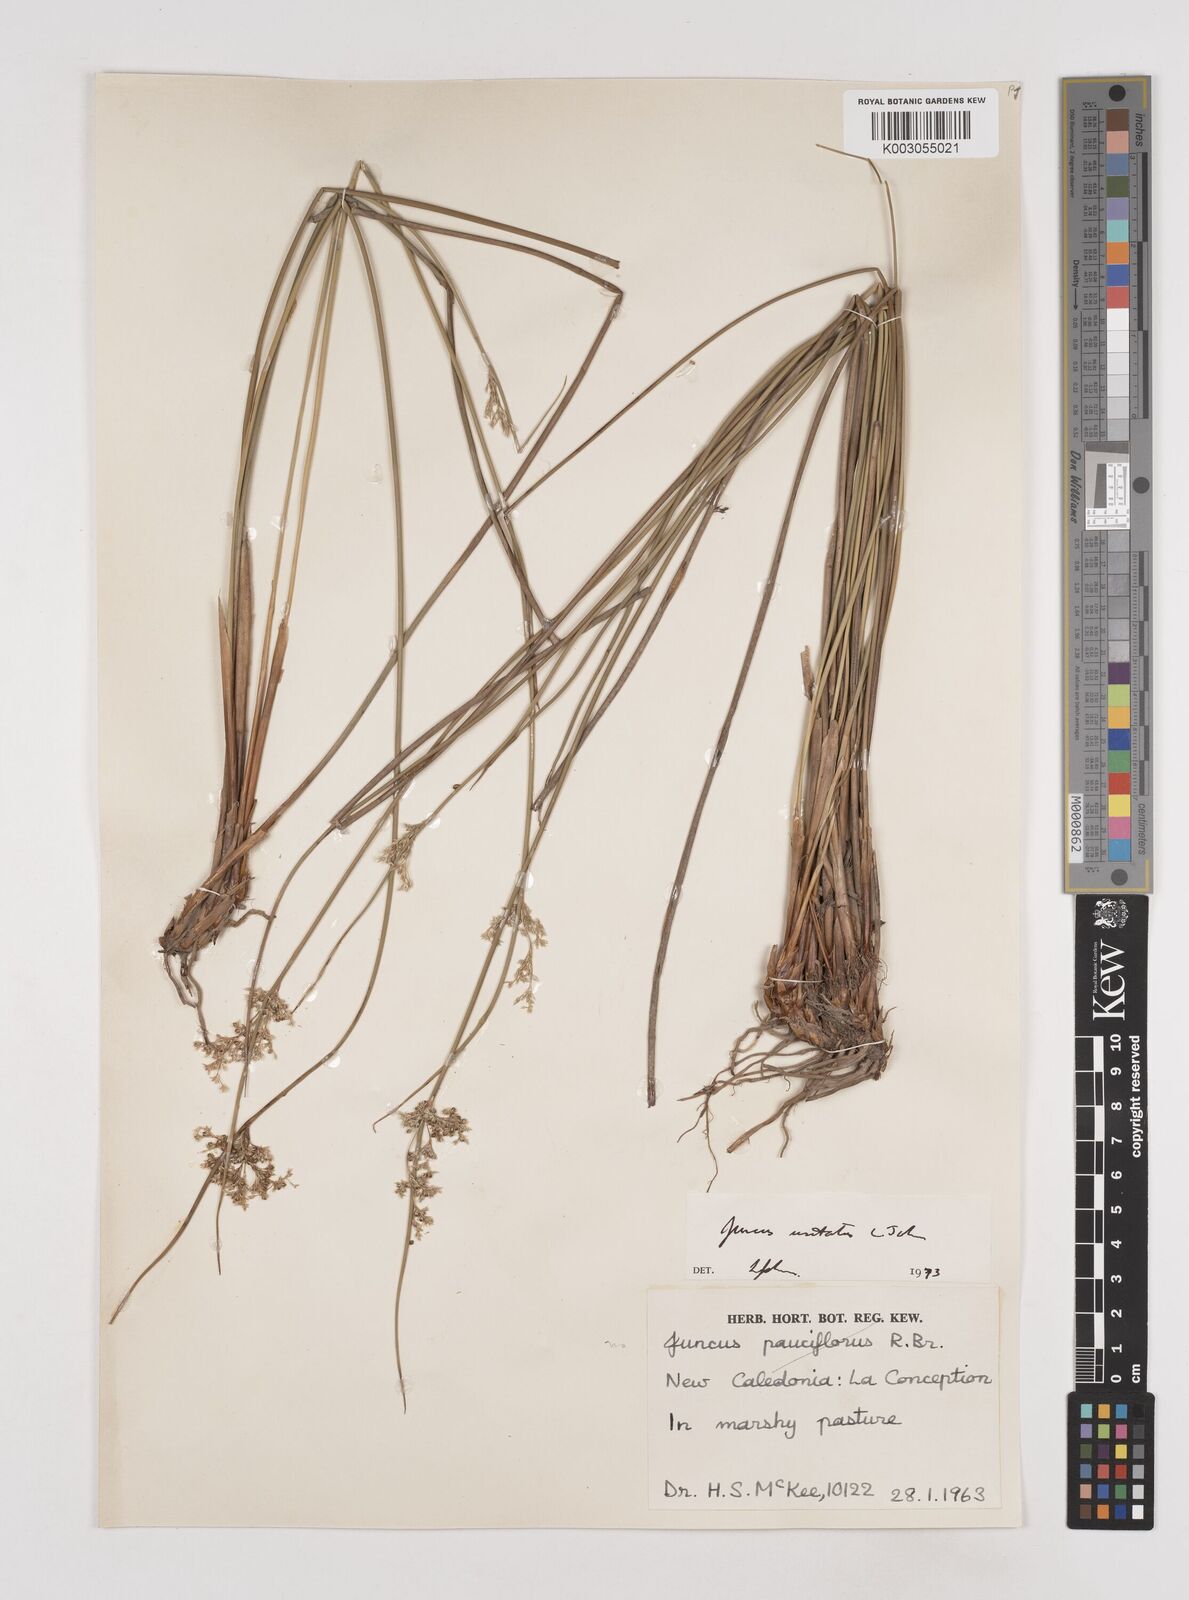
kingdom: Plantae
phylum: Tracheophyta
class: Liliopsida
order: Poales
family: Juncaceae
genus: Juncus
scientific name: Juncus usitatus
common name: Rush
